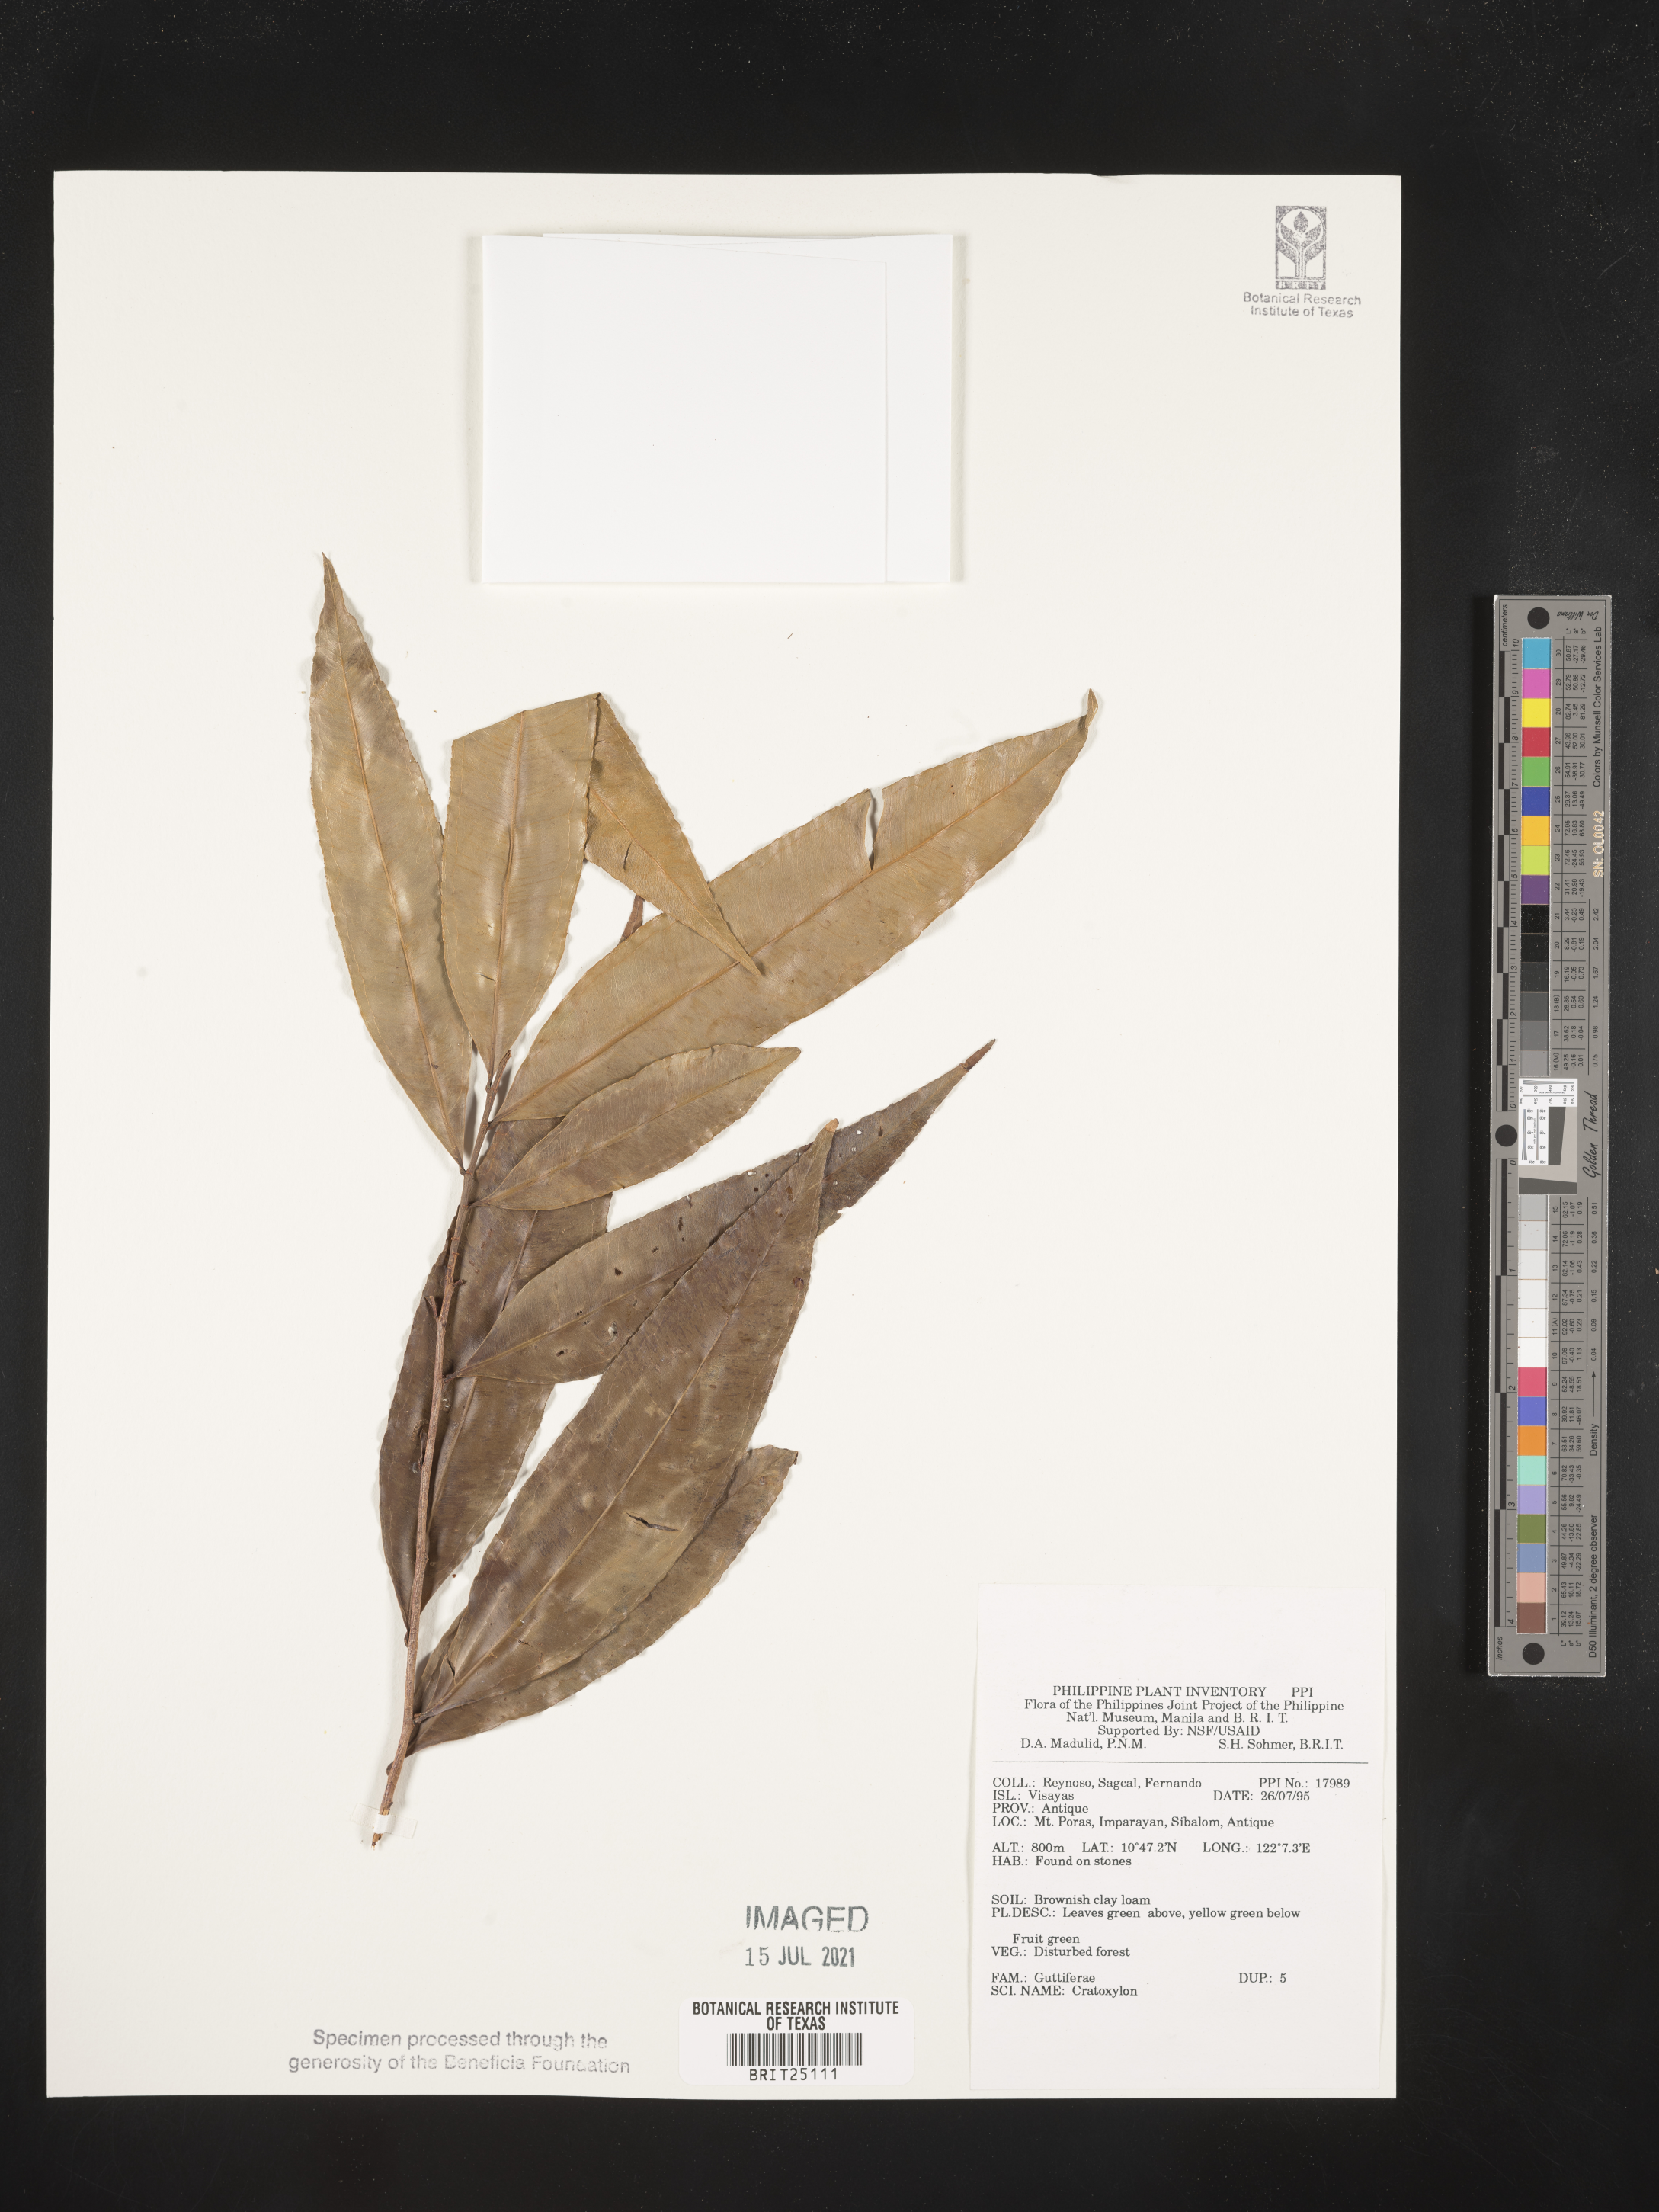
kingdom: Plantae
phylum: Tracheophyta
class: Magnoliopsida
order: Malpighiales
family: Hypericaceae
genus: Cratoxylum
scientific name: Cratoxylum
